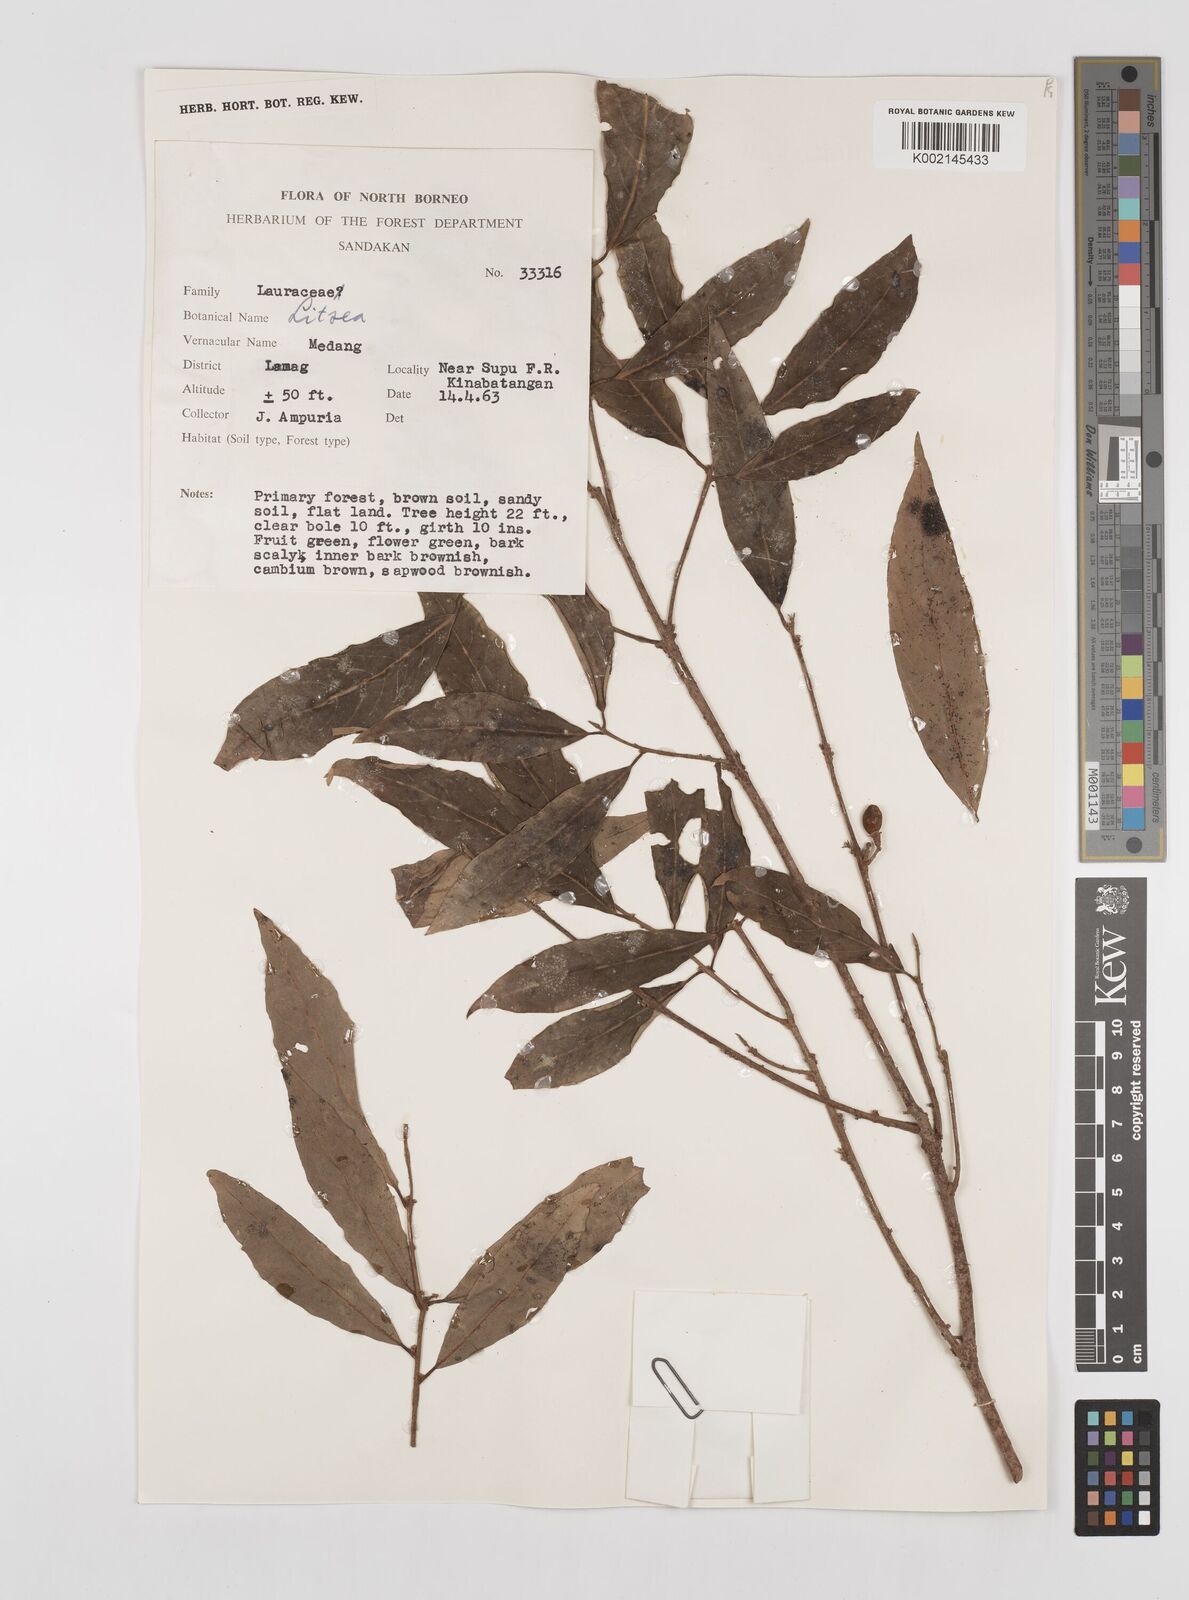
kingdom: Plantae
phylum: Tracheophyta
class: Magnoliopsida
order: Laurales
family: Lauraceae
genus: Litsea
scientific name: Litsea
